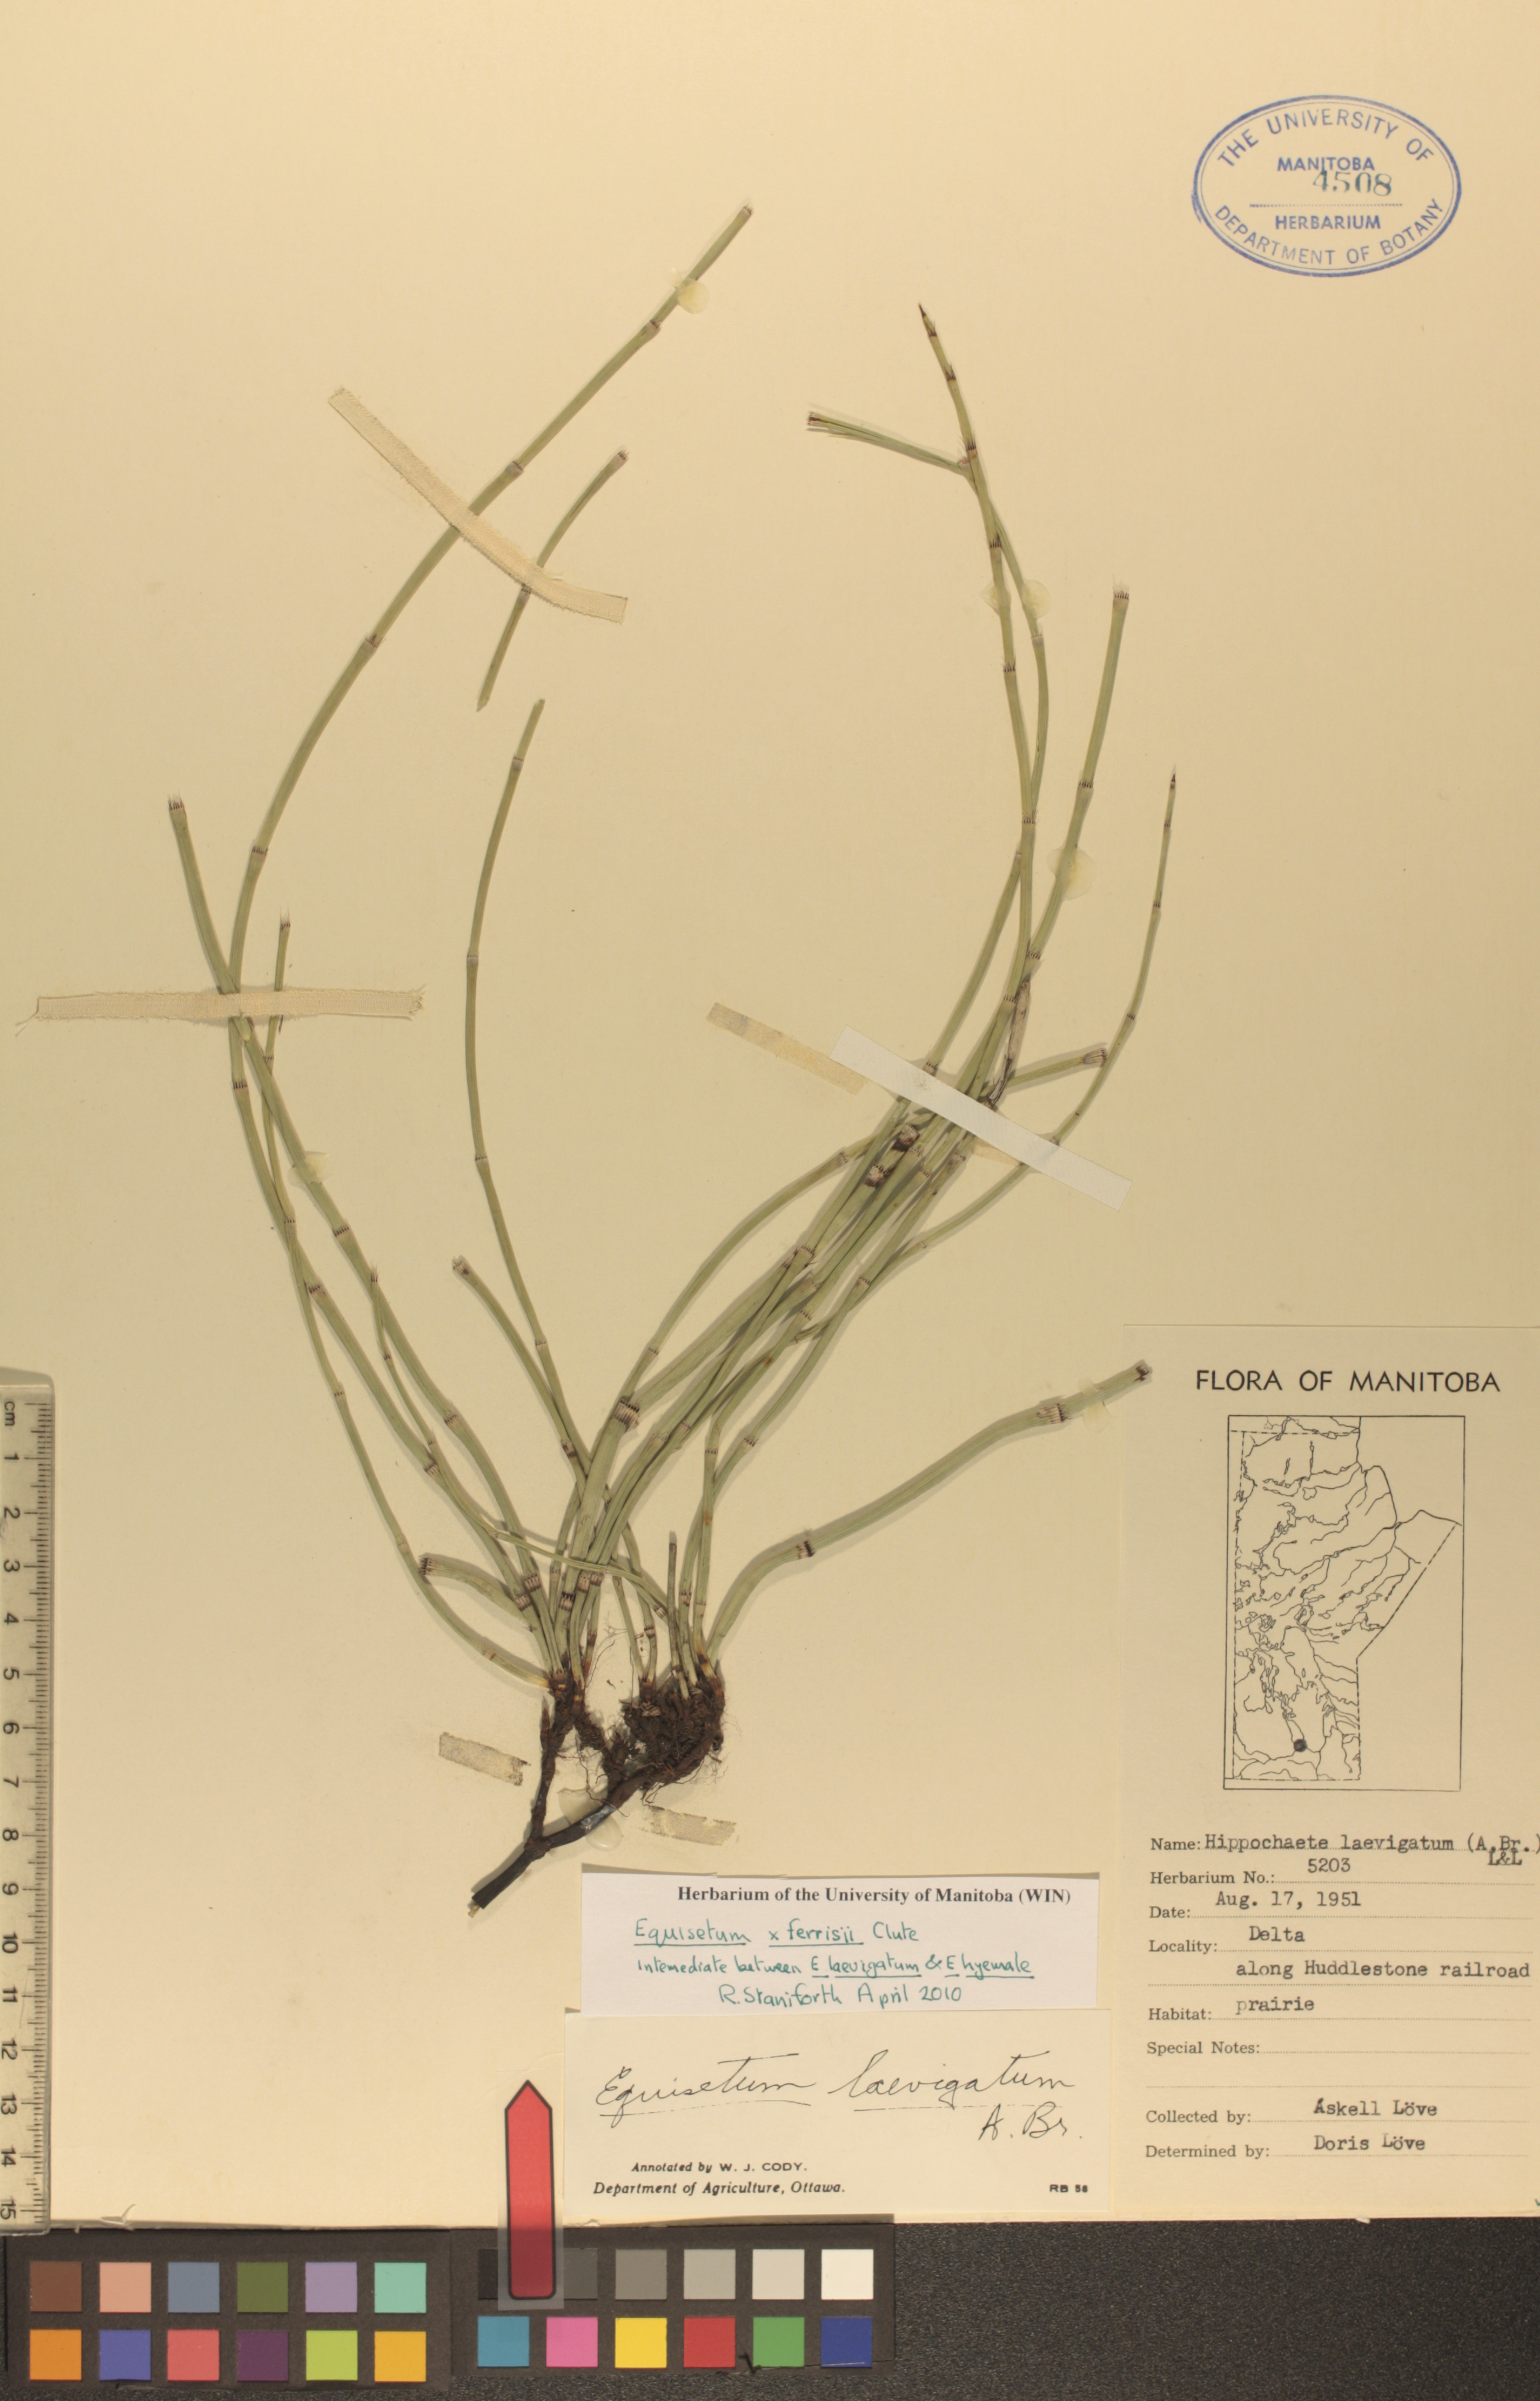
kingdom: Plantae
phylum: Tracheophyta
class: Polypodiopsida
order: Equisetales
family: Equisetaceae
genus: Equisetum
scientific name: Equisetum laevigatum
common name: Smooth scouring-rush
